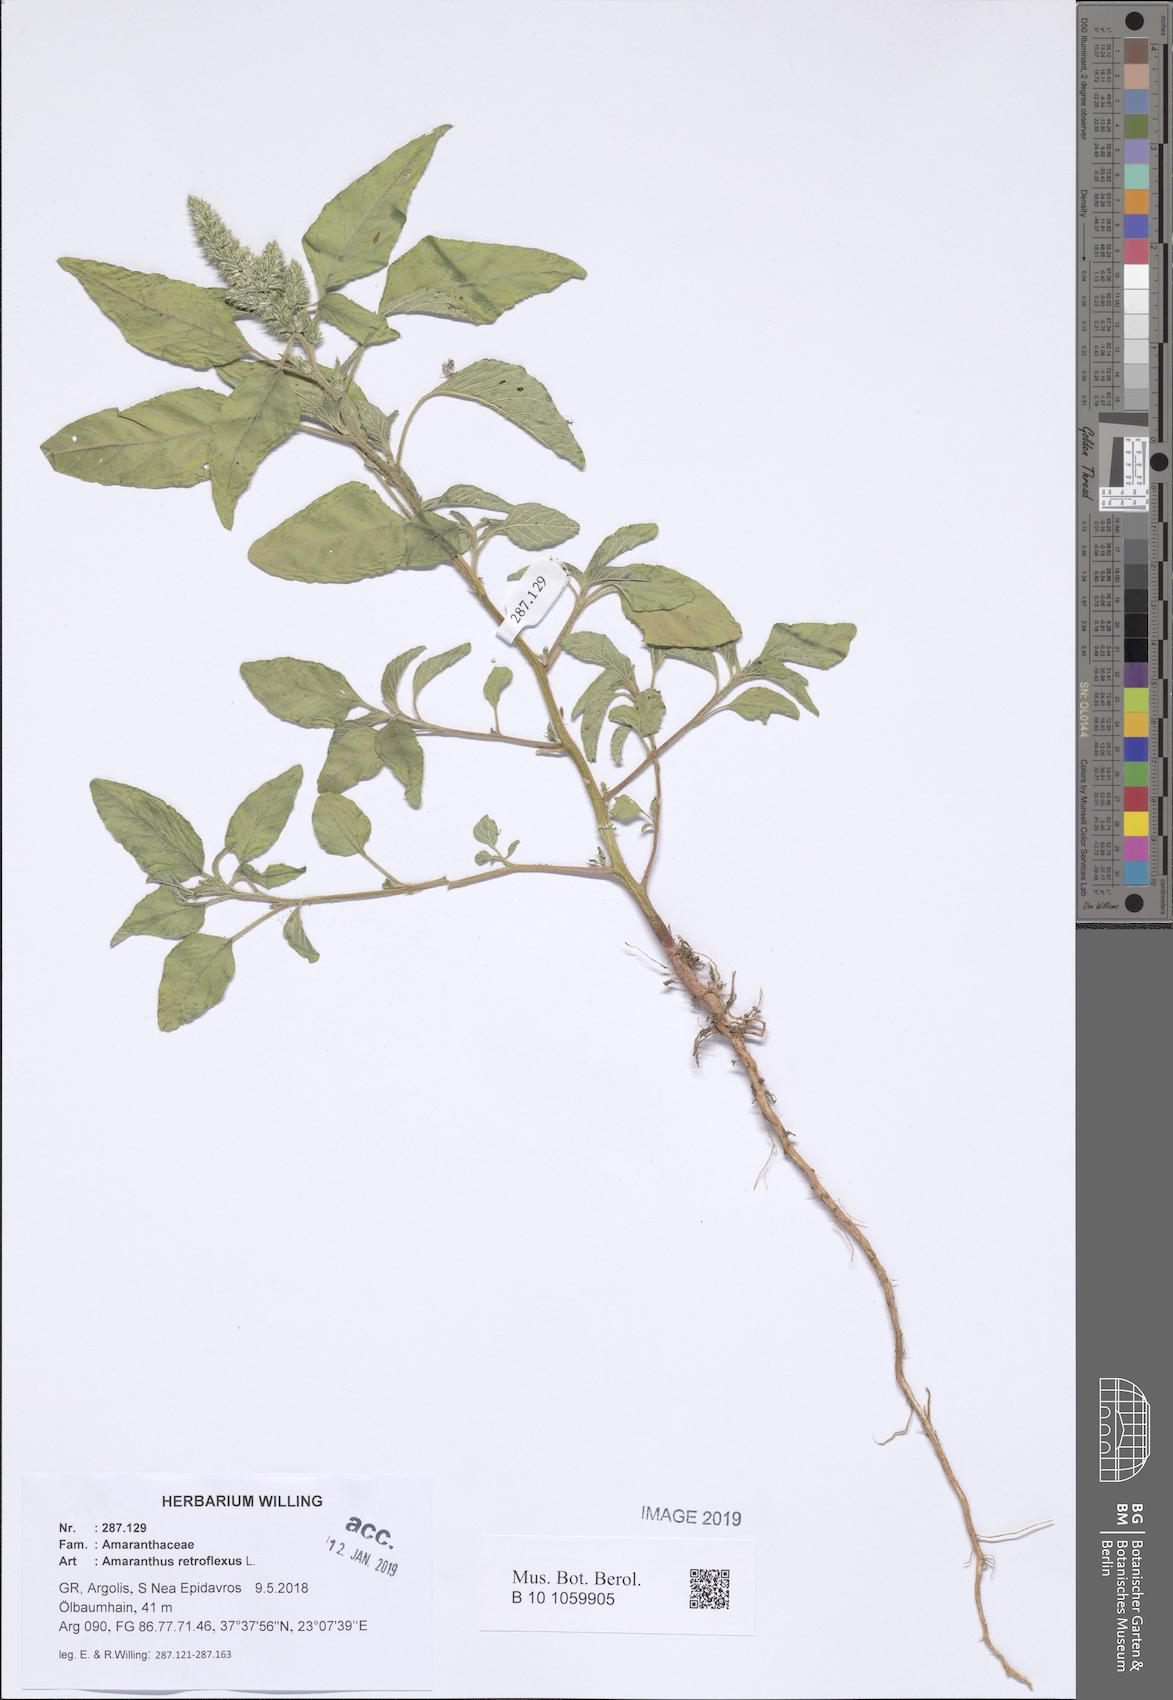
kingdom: Plantae
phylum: Tracheophyta
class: Magnoliopsida
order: Caryophyllales
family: Amaranthaceae
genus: Amaranthus
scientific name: Amaranthus retroflexus
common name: Redroot amaranth
